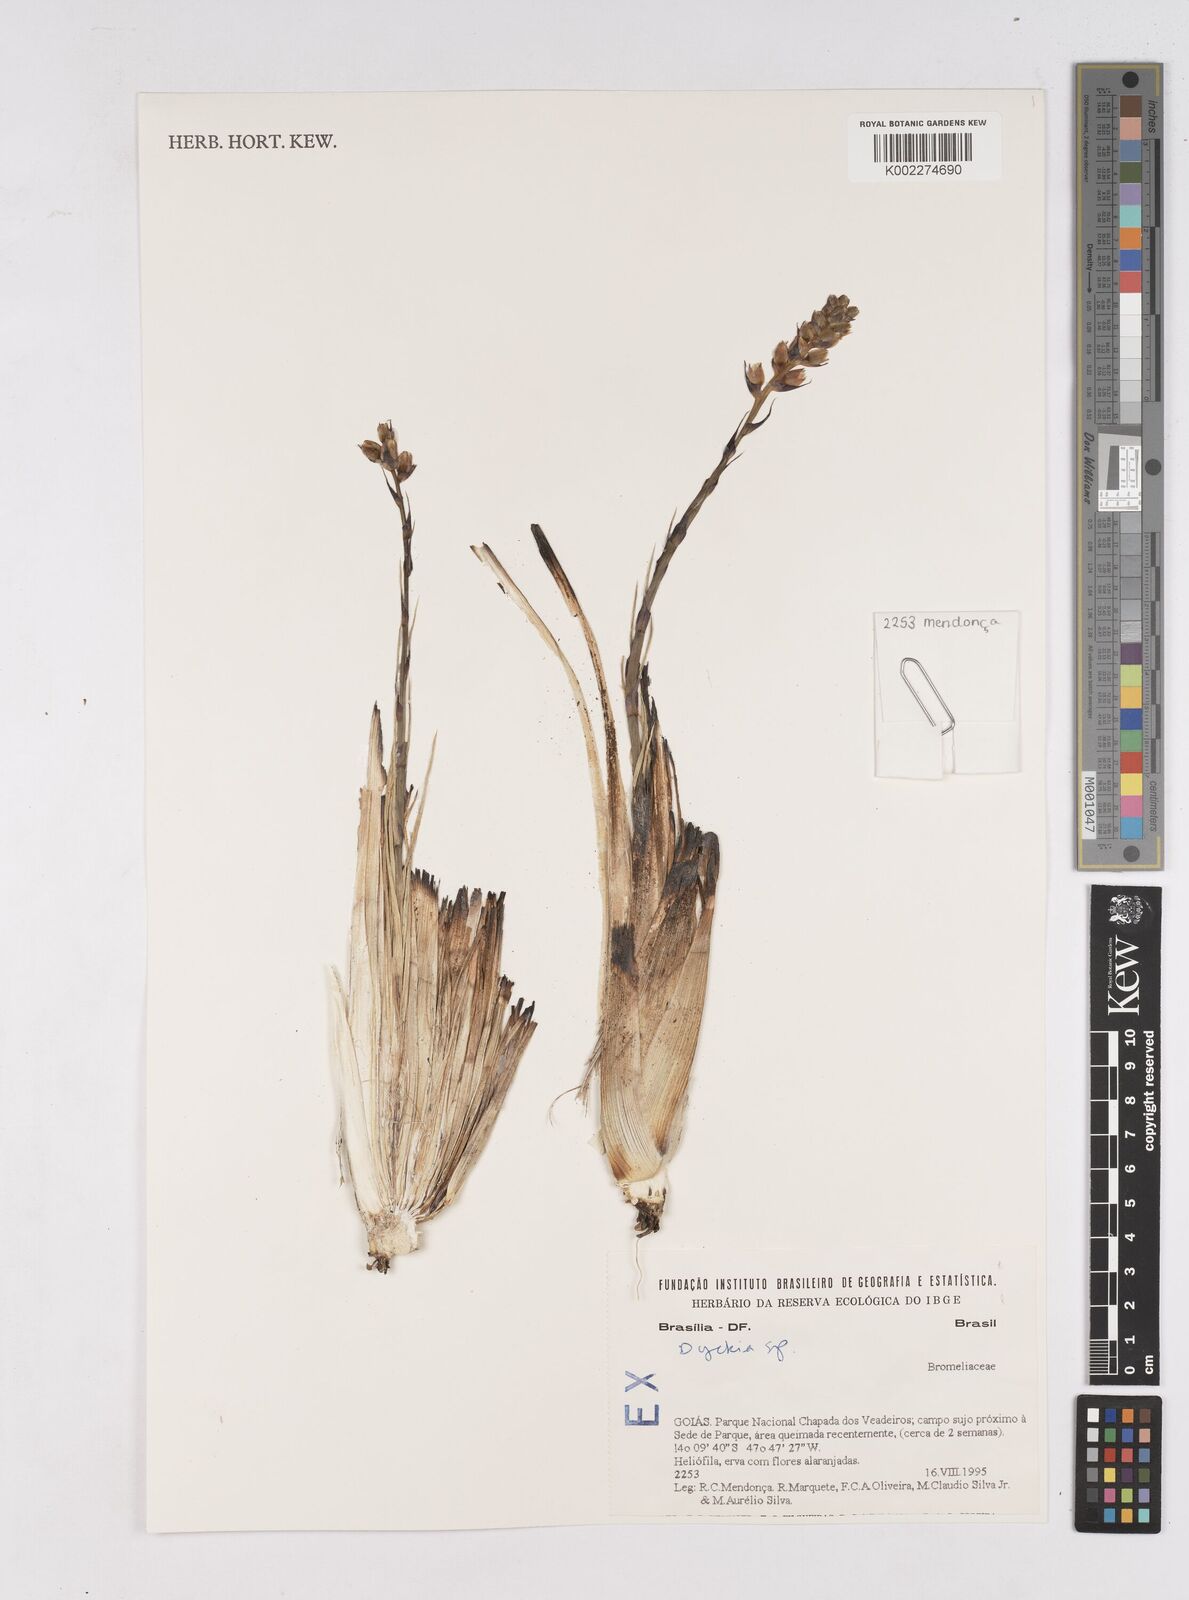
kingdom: Plantae
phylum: Tracheophyta
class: Liliopsida
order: Poales
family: Bromeliaceae
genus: Dyckia
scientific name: Dyckia
